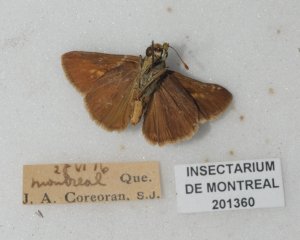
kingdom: Animalia
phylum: Arthropoda
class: Insecta
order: Lepidoptera
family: Hesperiidae
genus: Euphyes
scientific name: Euphyes vestris
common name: Dun Skipper
